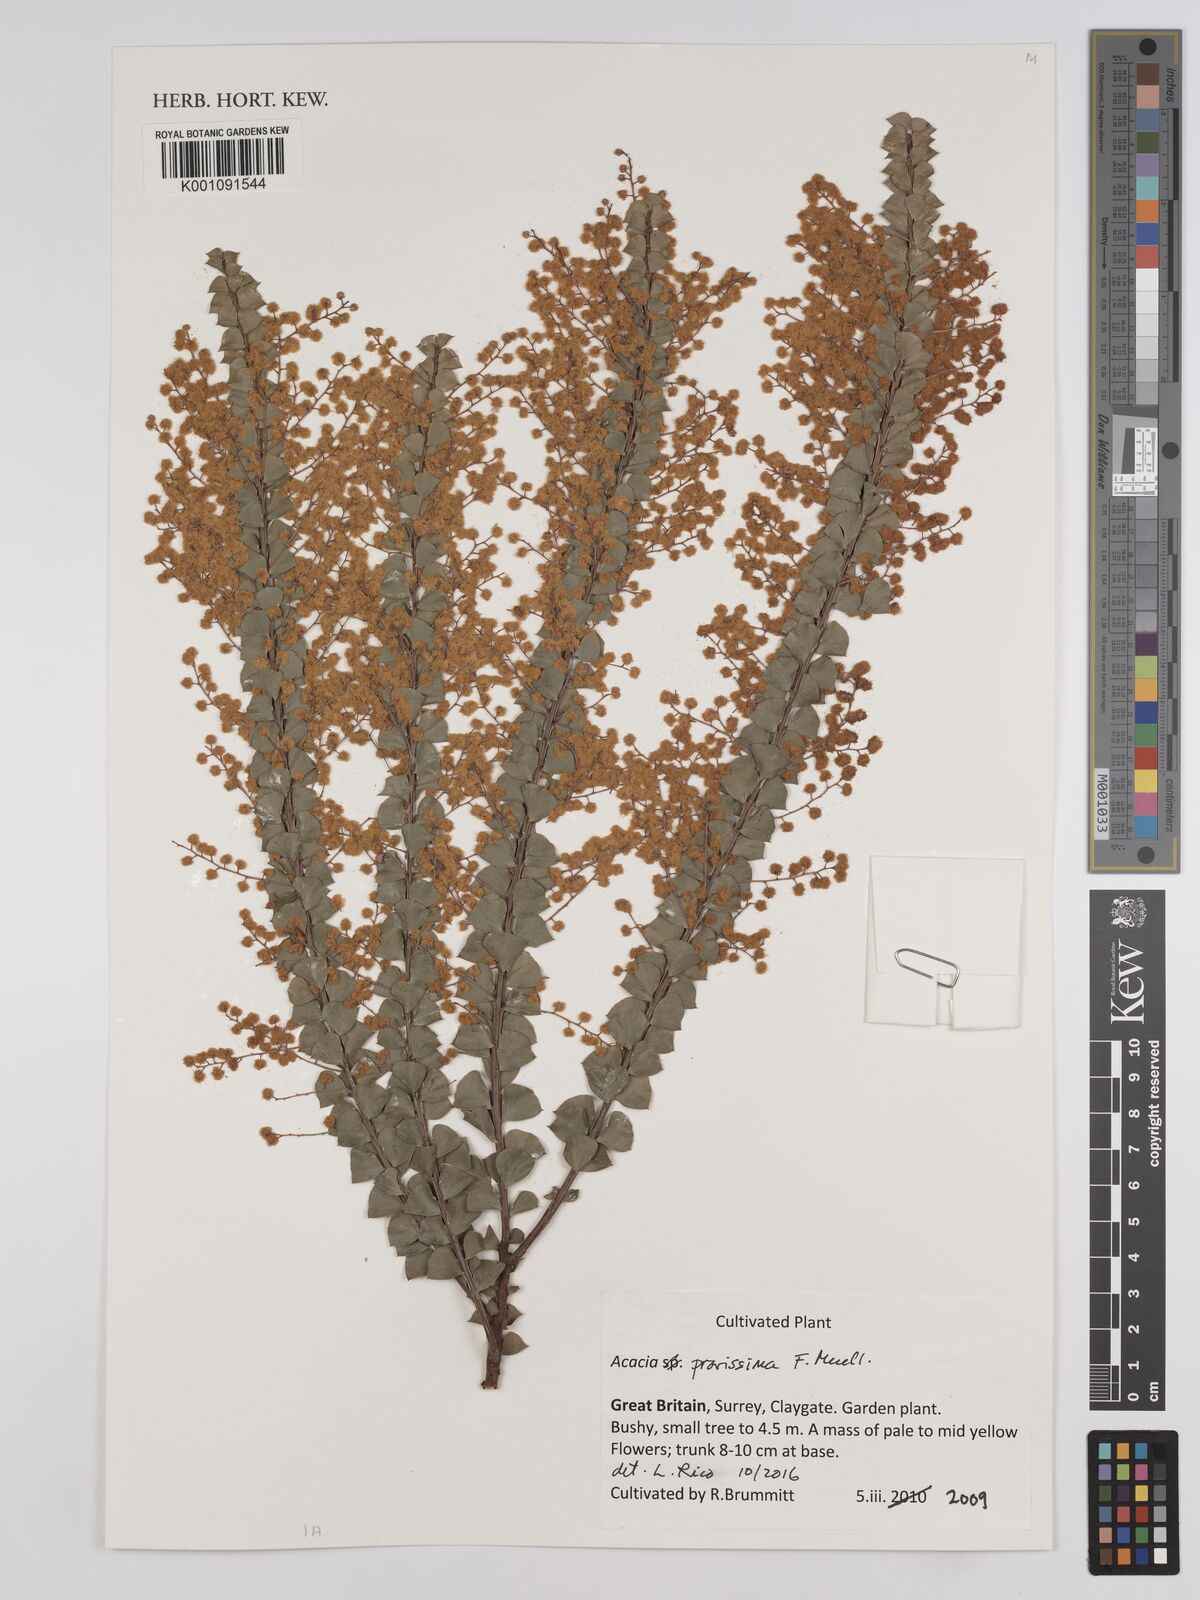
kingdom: Plantae
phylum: Tracheophyta
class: Magnoliopsida
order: Fabales
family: Fabaceae
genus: Acacia
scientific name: Acacia pravissima
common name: Tumut wattle
